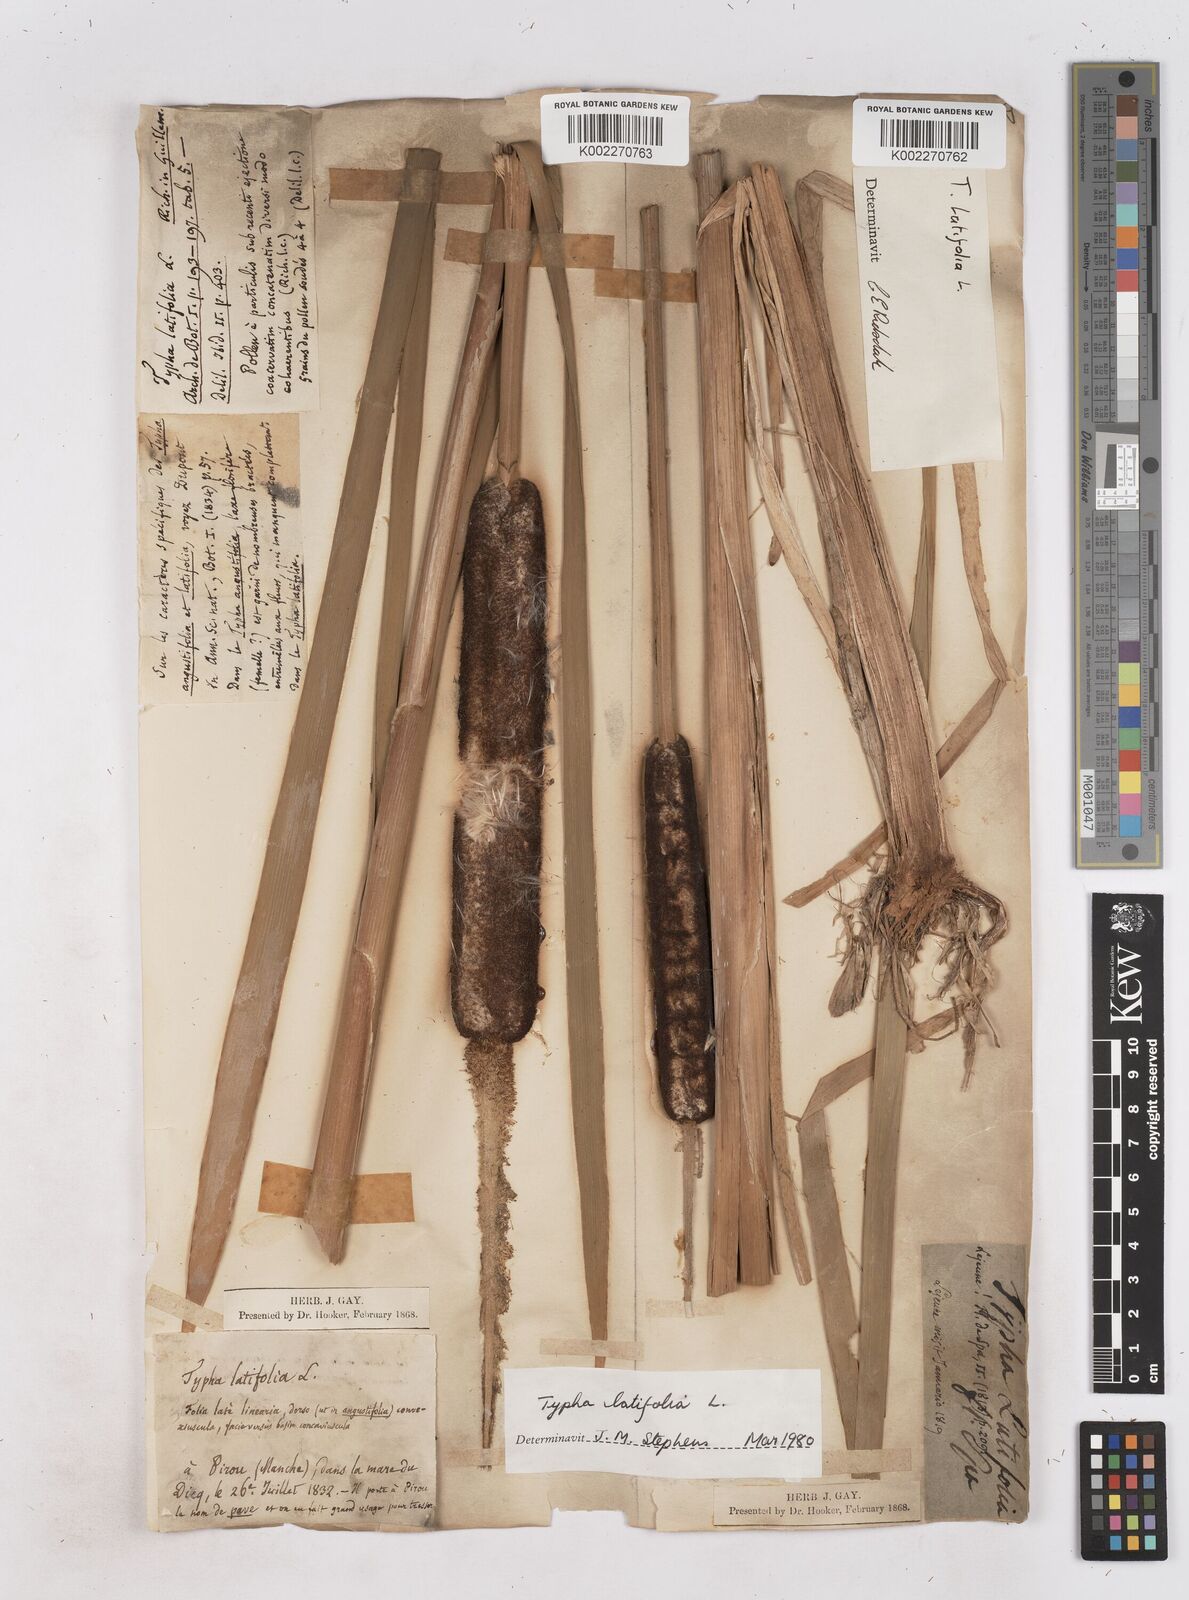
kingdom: Plantae
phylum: Tracheophyta
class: Liliopsida
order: Poales
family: Typhaceae
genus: Typha
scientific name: Typha latifolia
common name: Broadleaf cattail
